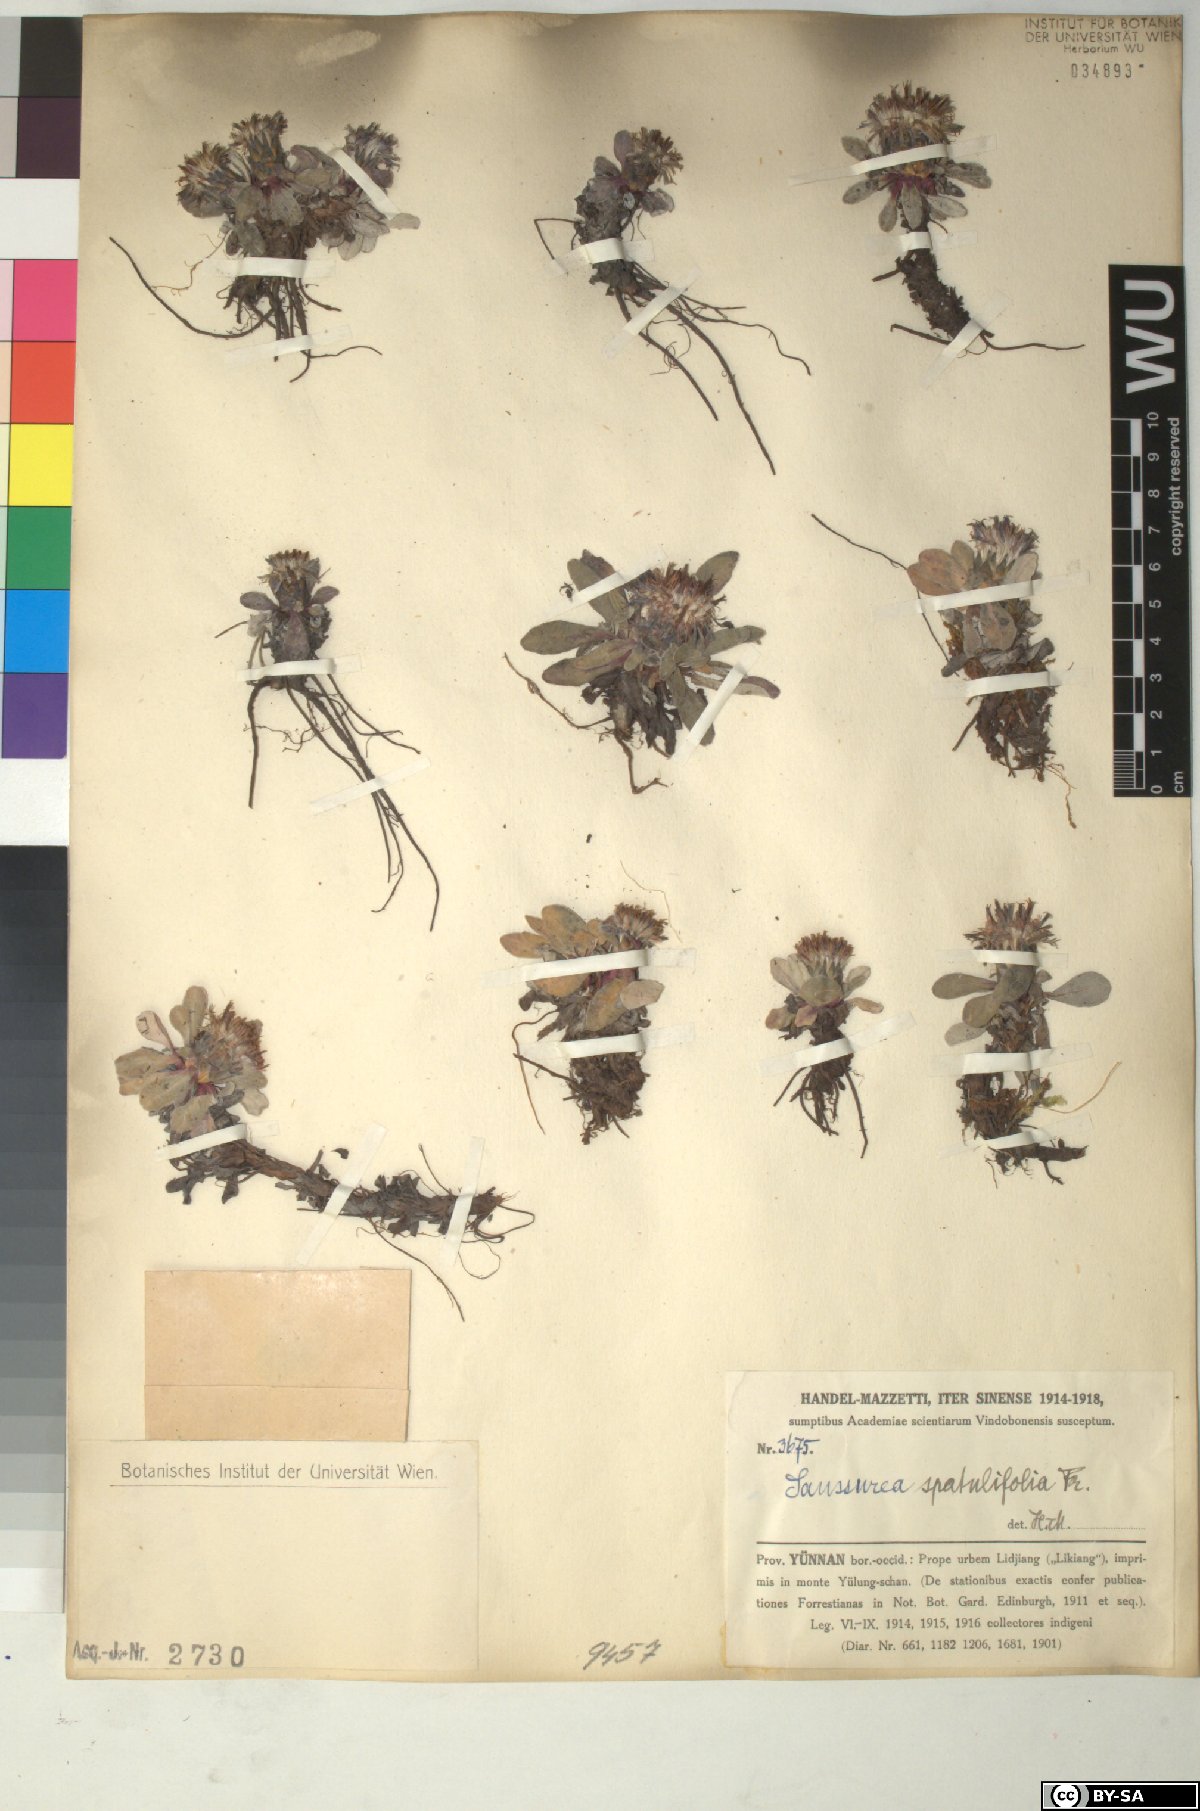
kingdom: Plantae
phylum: Tracheophyta
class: Magnoliopsida
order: Asterales
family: Asteraceae
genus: Saussurea
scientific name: Saussurea spatulifolia
